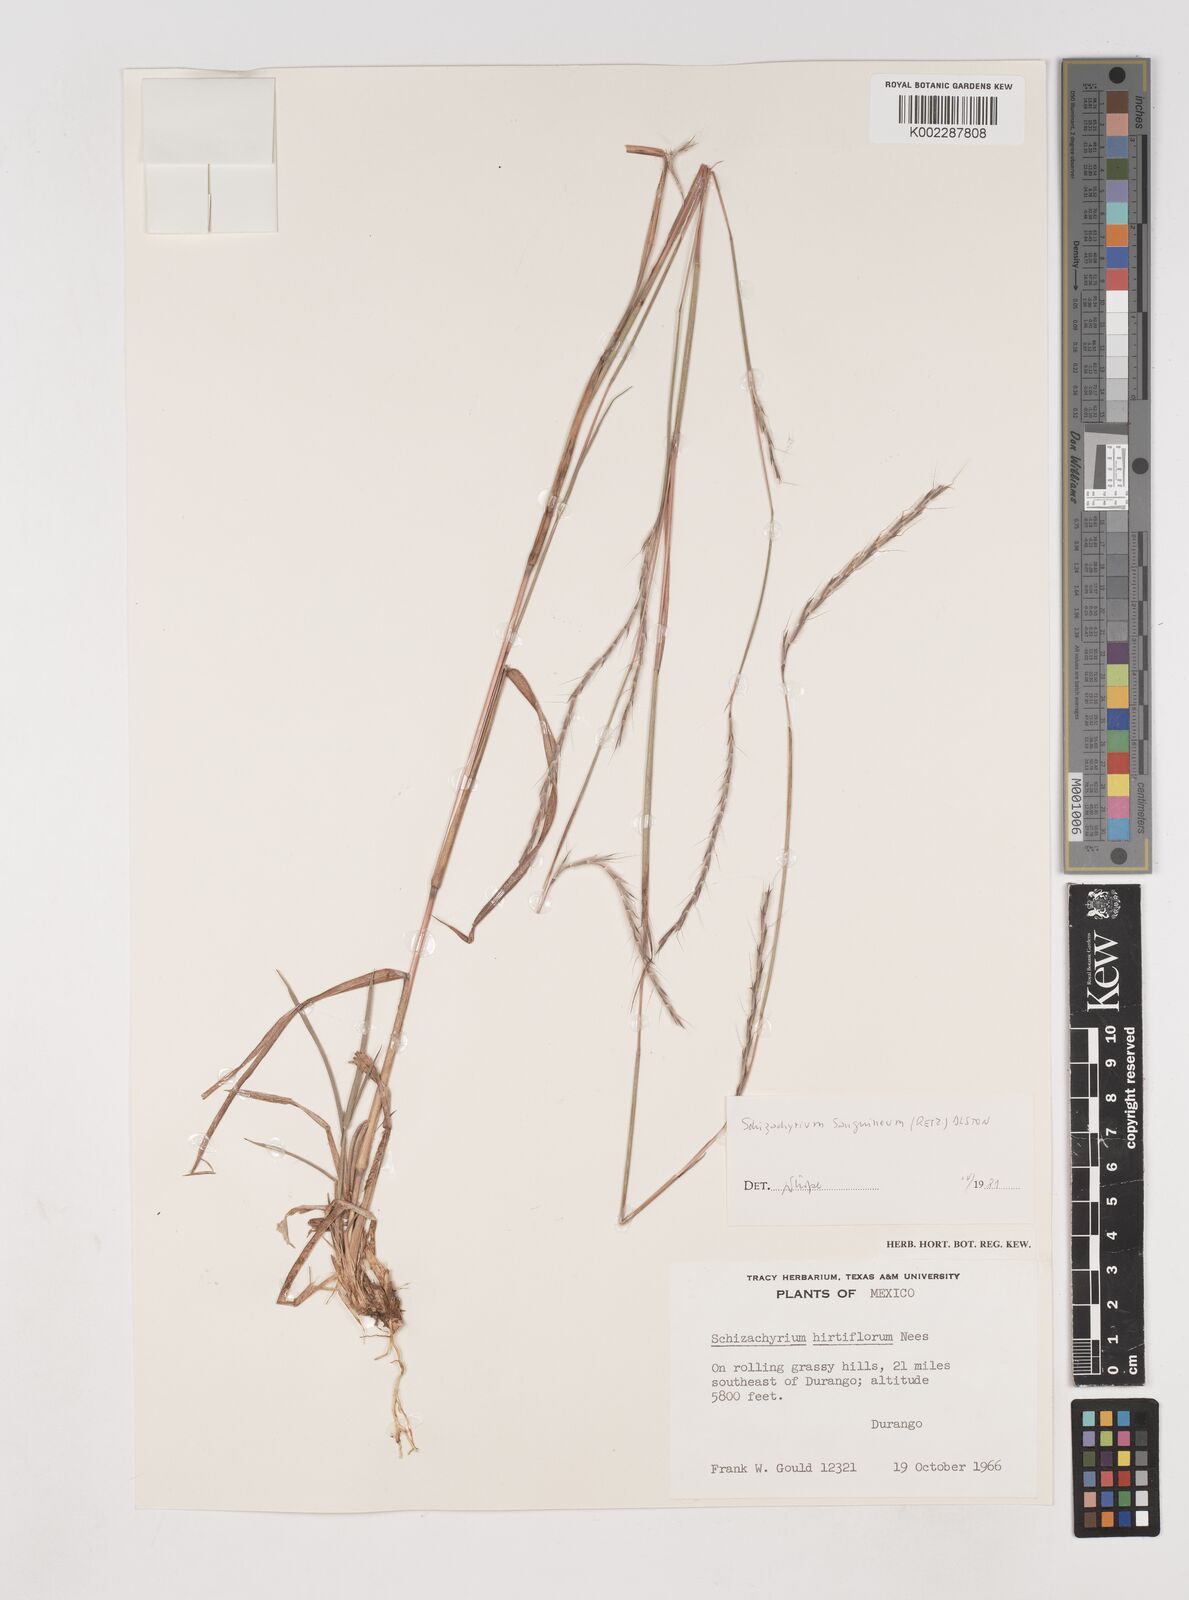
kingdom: Plantae
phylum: Tracheophyta
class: Liliopsida
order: Poales
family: Poaceae
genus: Schizachyrium
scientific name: Schizachyrium sanguineum
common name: Crimson bluestem
